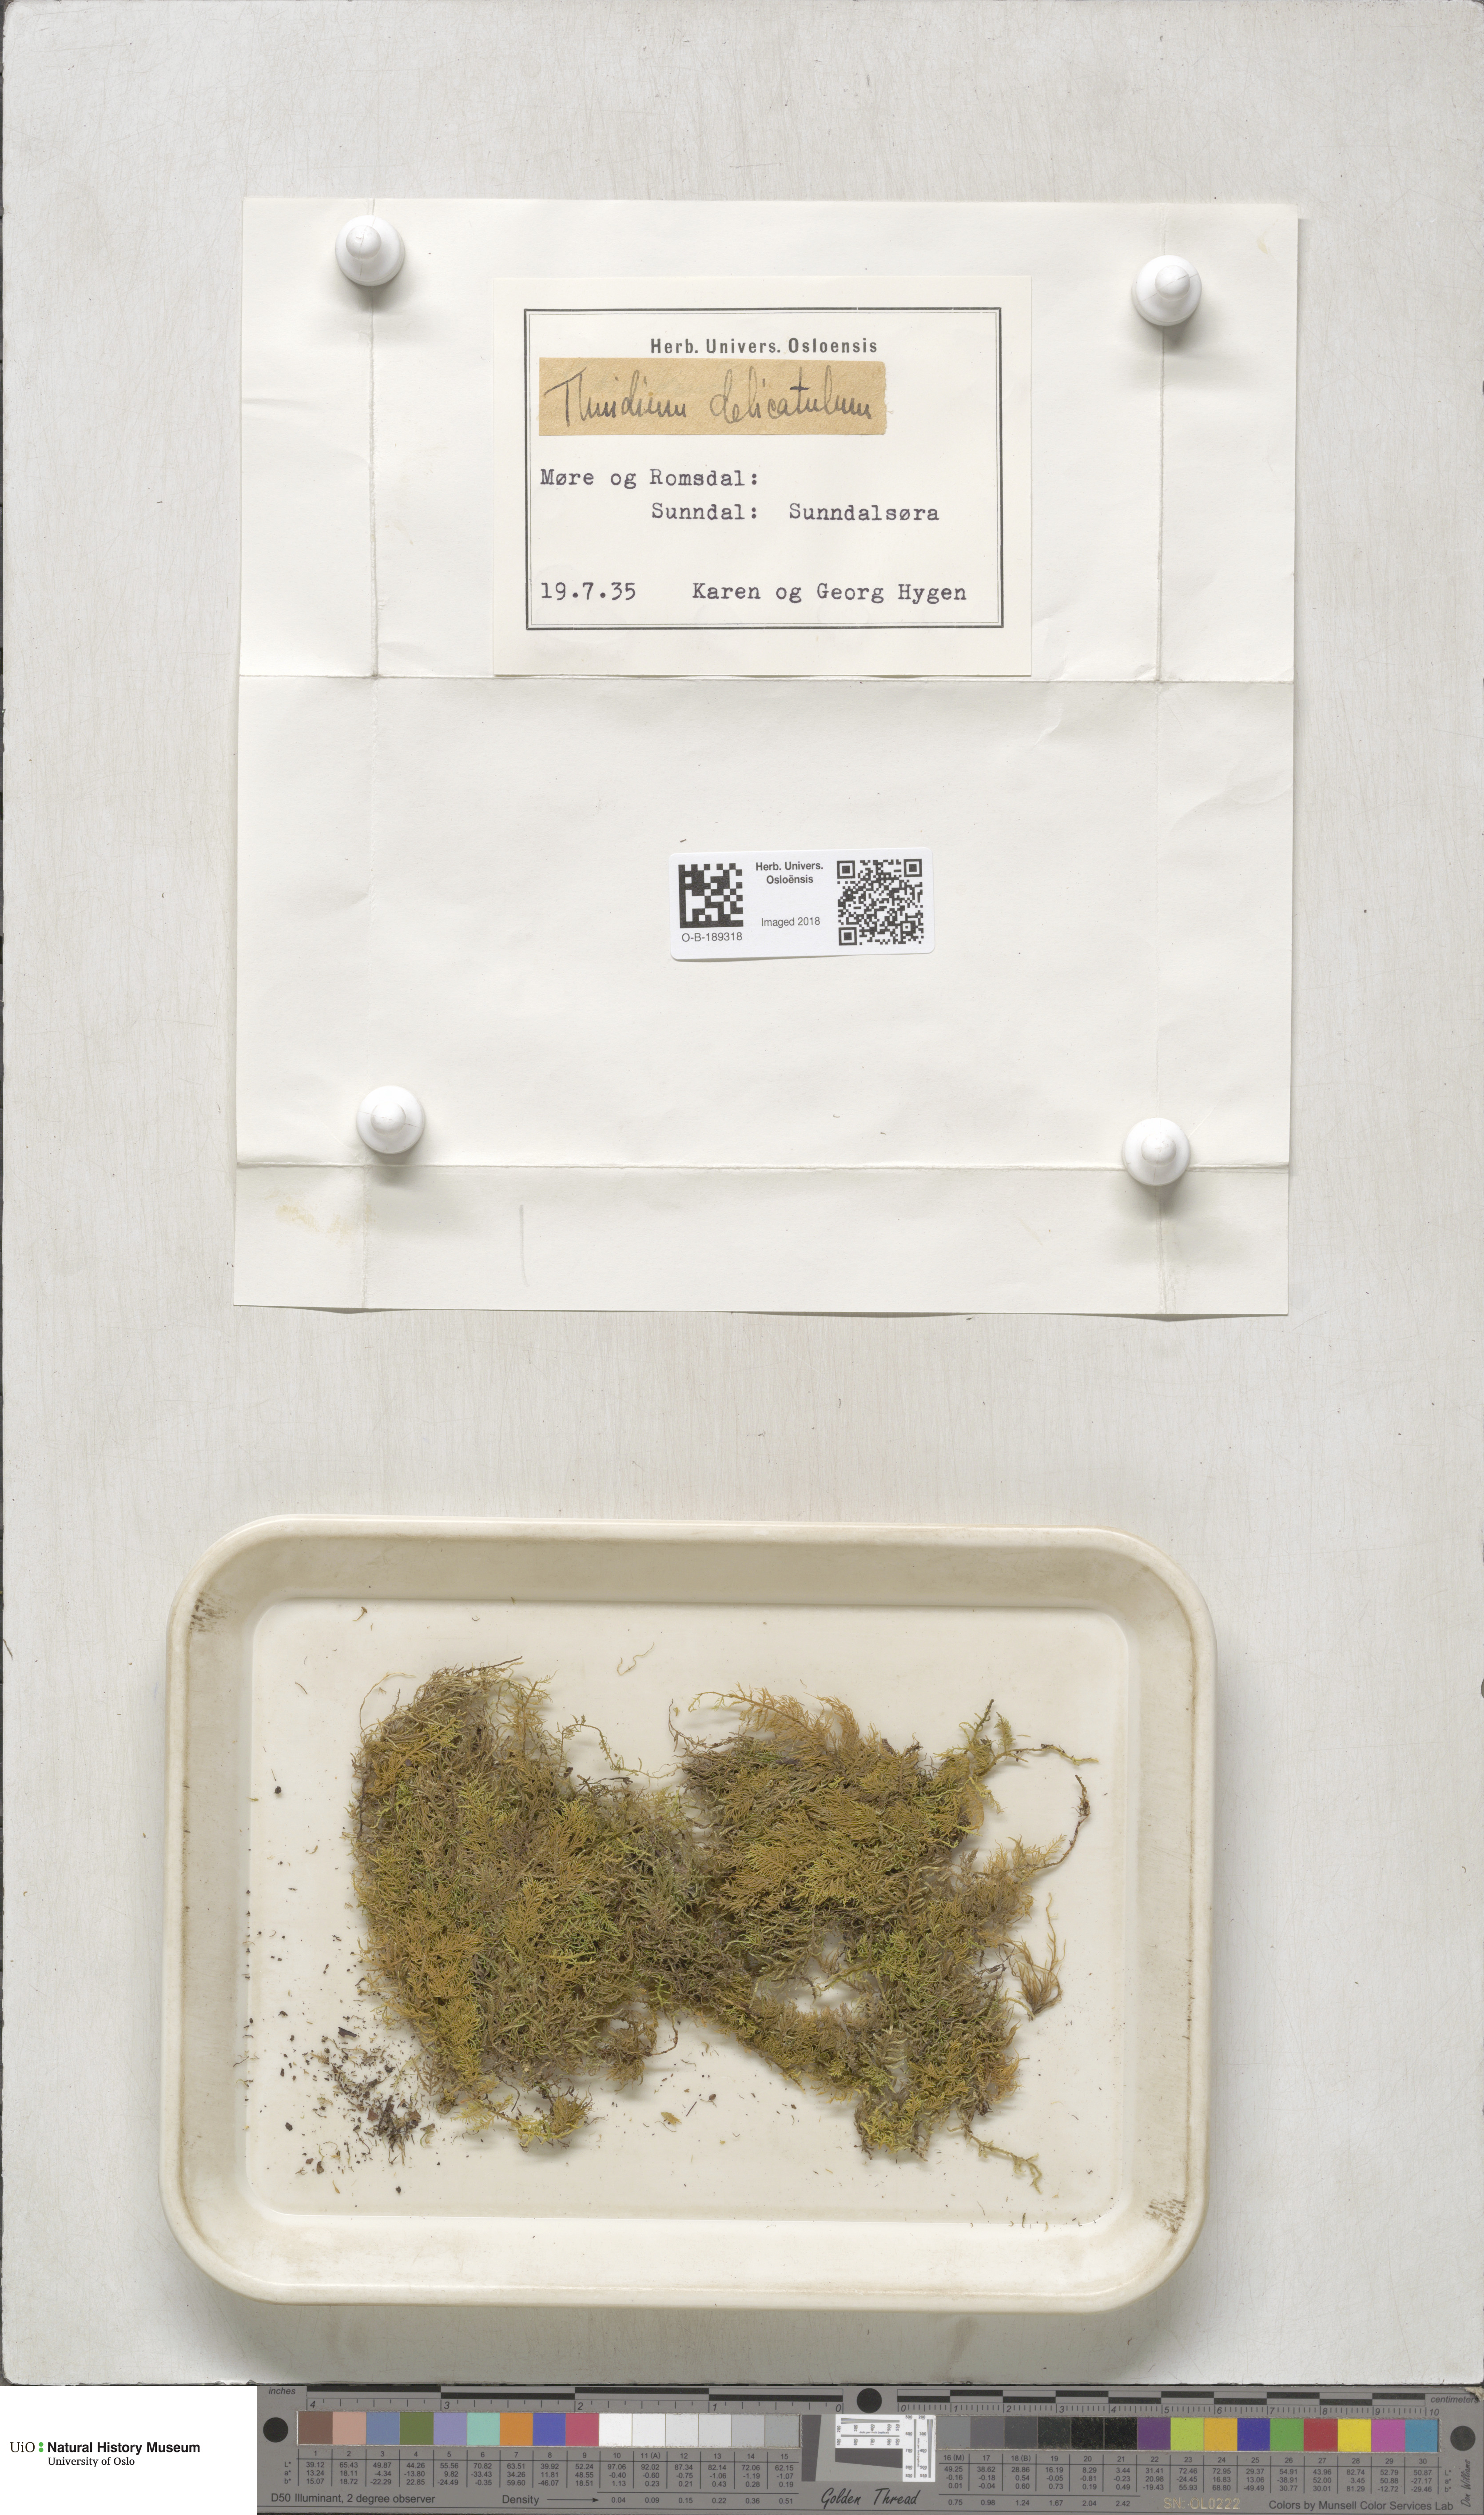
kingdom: Plantae
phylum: Bryophyta
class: Bryopsida
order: Hypnales
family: Thuidiaceae
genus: Thuidium
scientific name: Thuidium delicatulum
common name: Delicate fern moss
